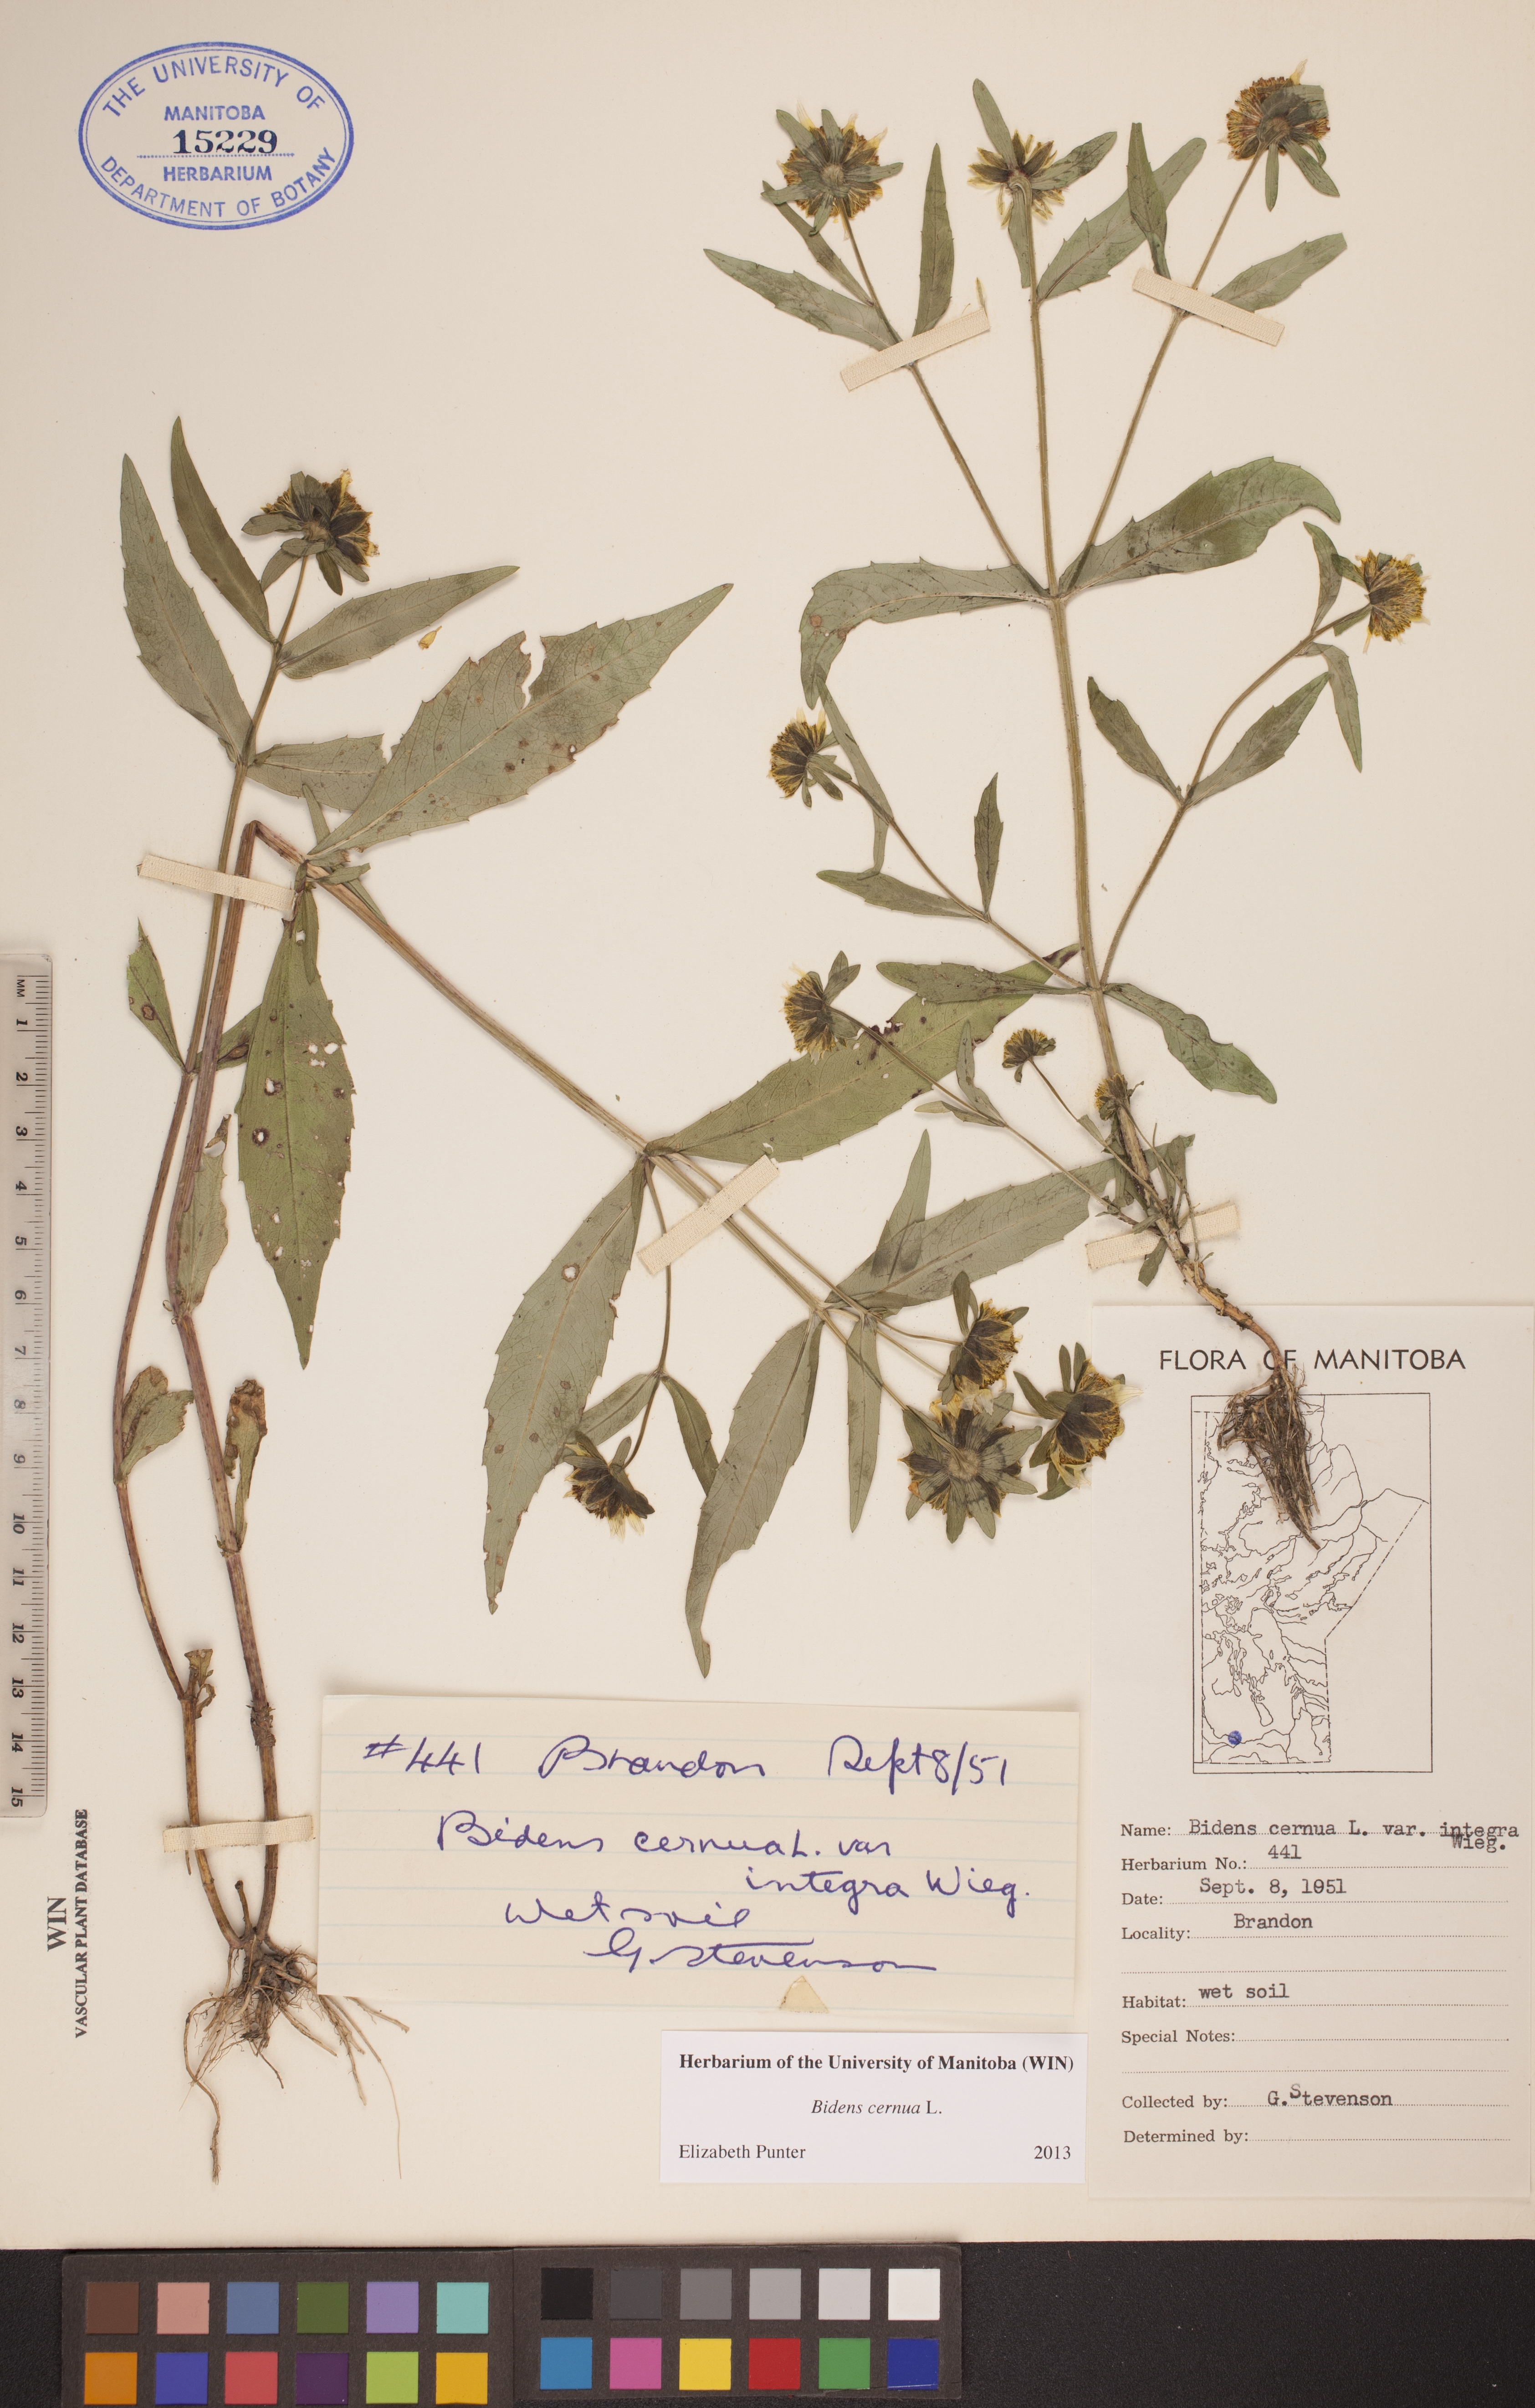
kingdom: Plantae
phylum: Tracheophyta
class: Magnoliopsida
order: Asterales
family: Asteraceae
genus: Bidens
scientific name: Bidens cernua
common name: Nodding bur-marigold
